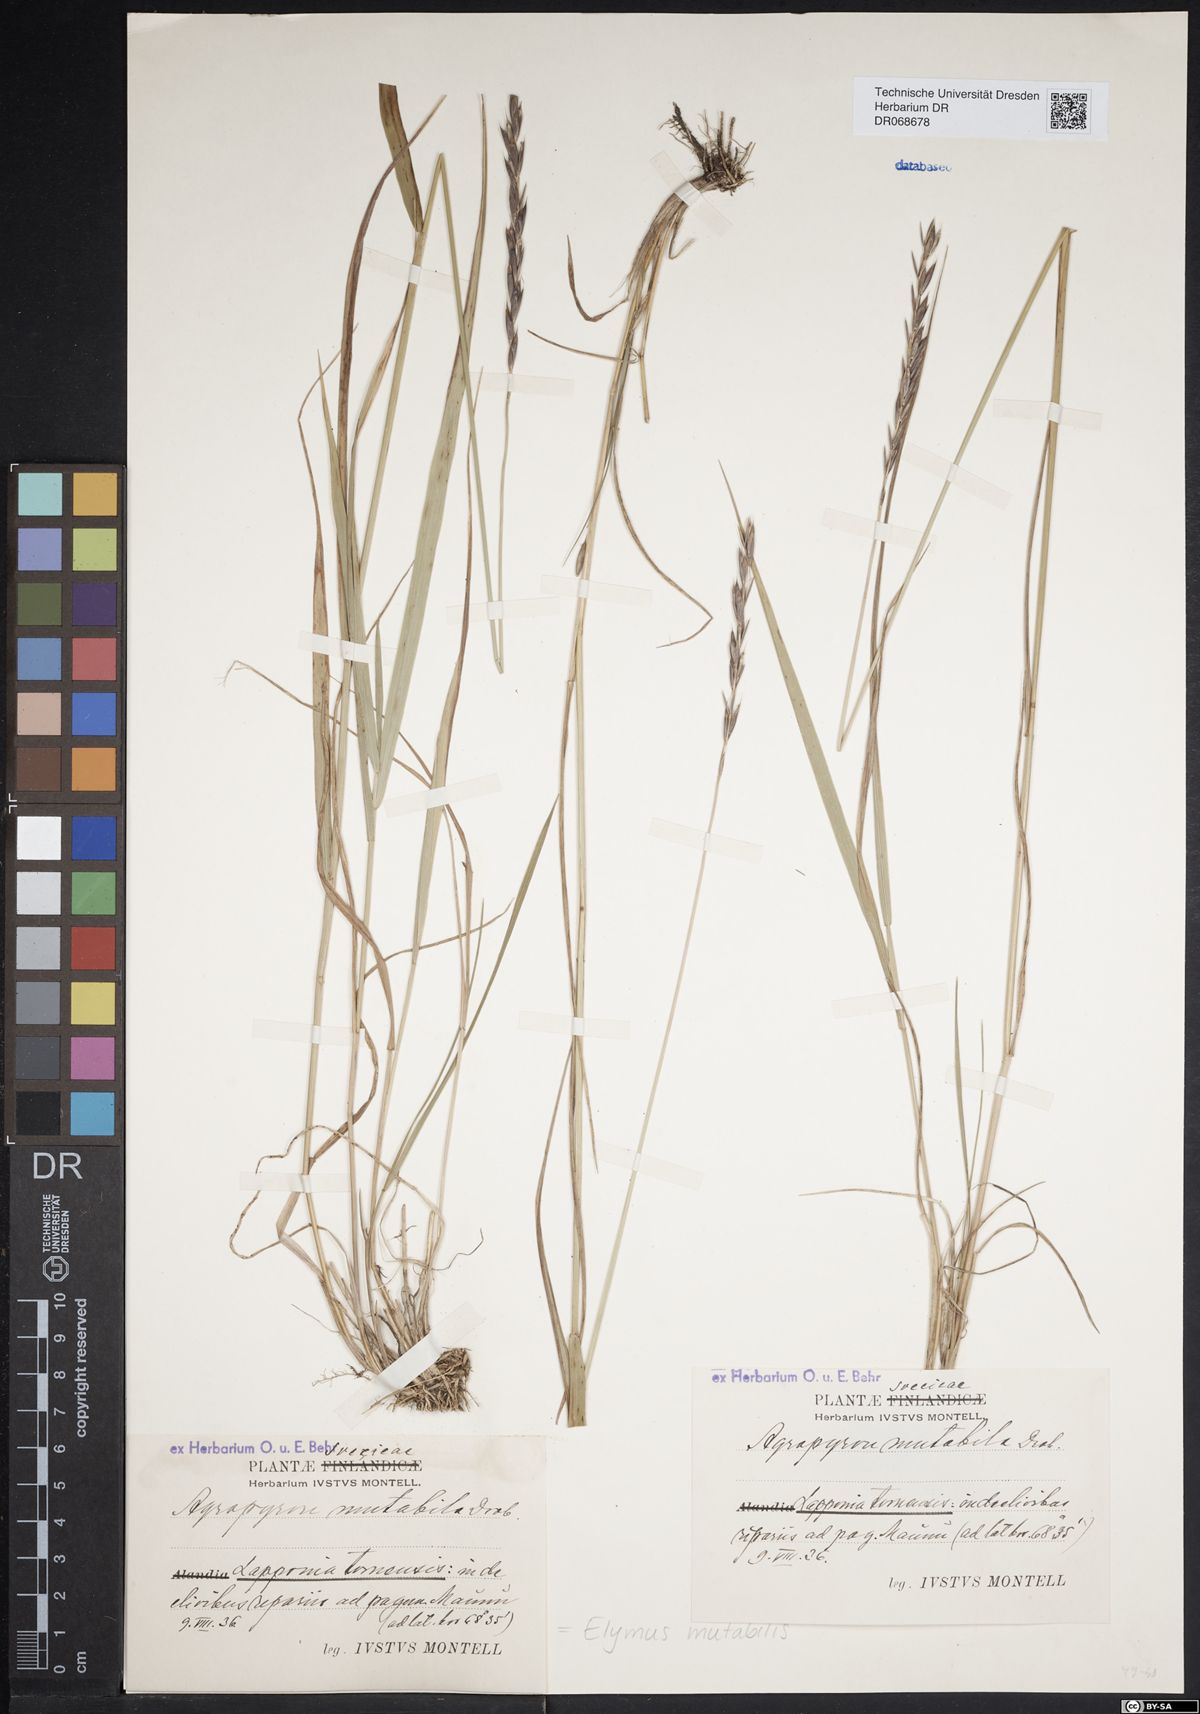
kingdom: Plantae
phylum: Tracheophyta
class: Liliopsida
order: Poales
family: Poaceae
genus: Elymus
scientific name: Elymus mutabilis
